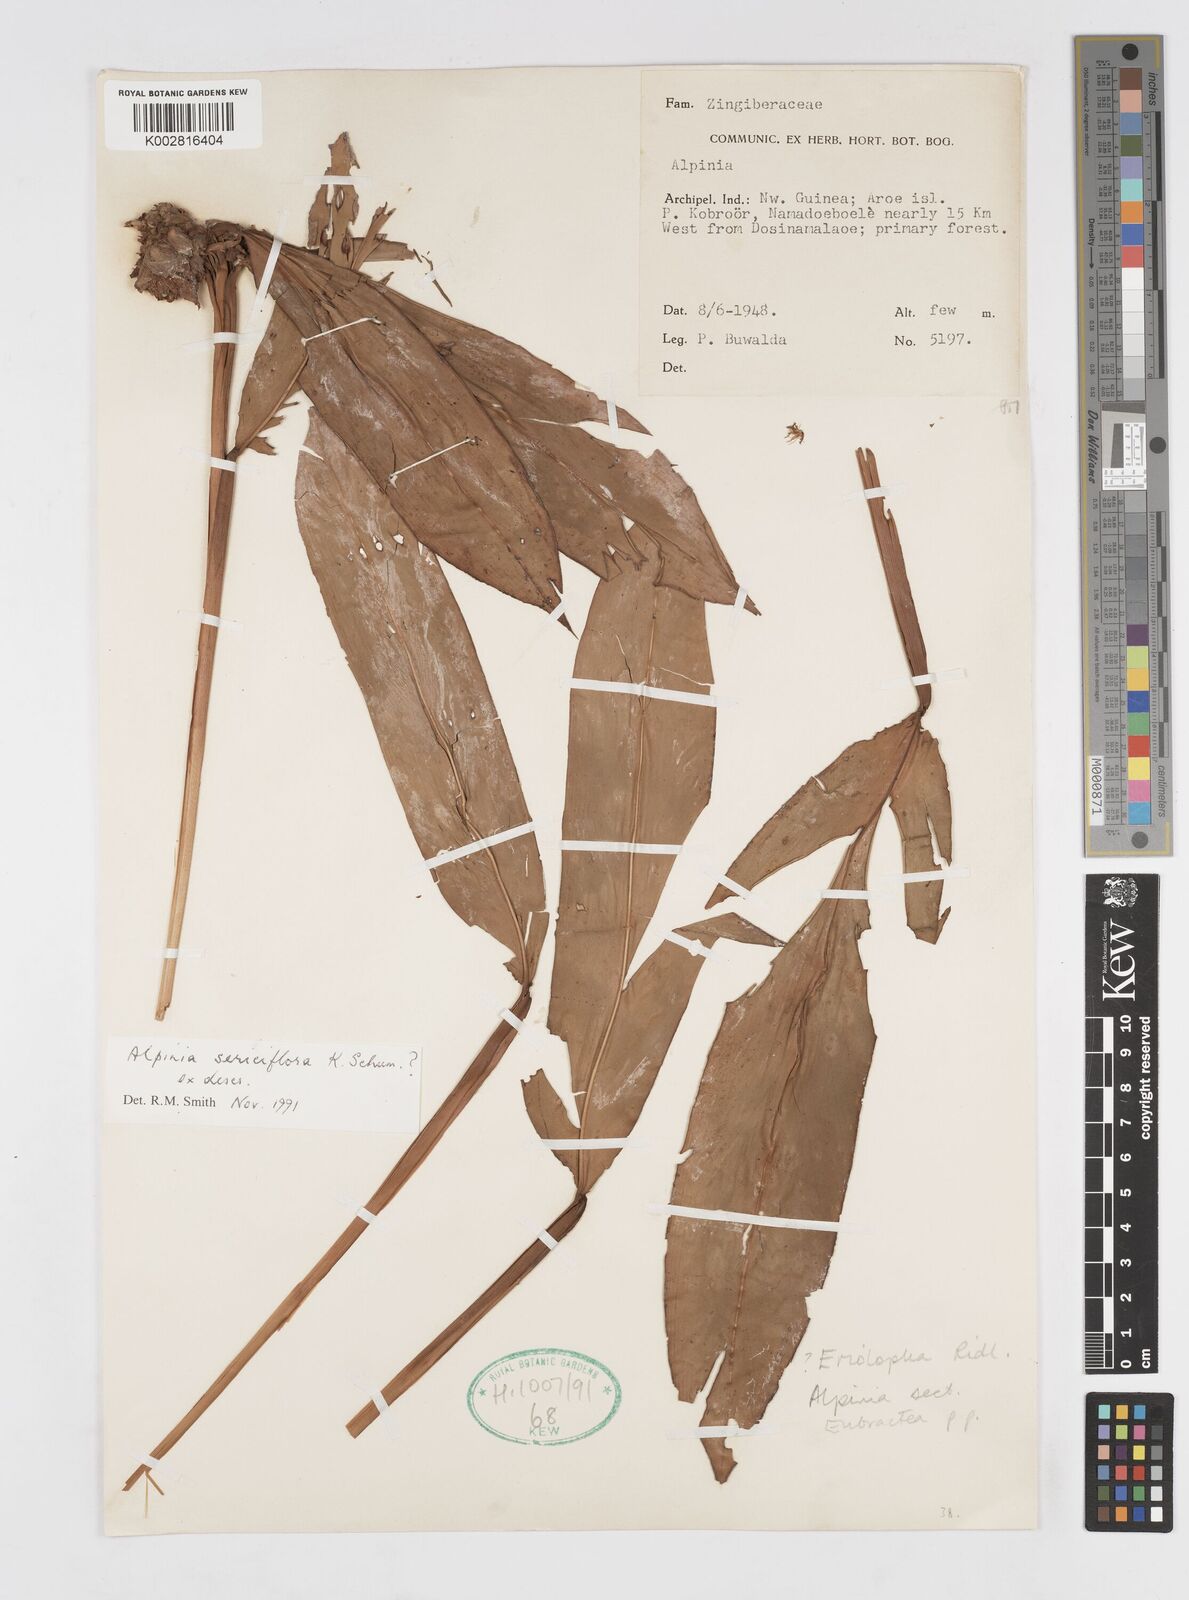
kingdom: Plantae
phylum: Tracheophyta
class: Liliopsida
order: Zingiberales
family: Zingiberaceae
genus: Alpinia
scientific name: Alpinia sericiflora
